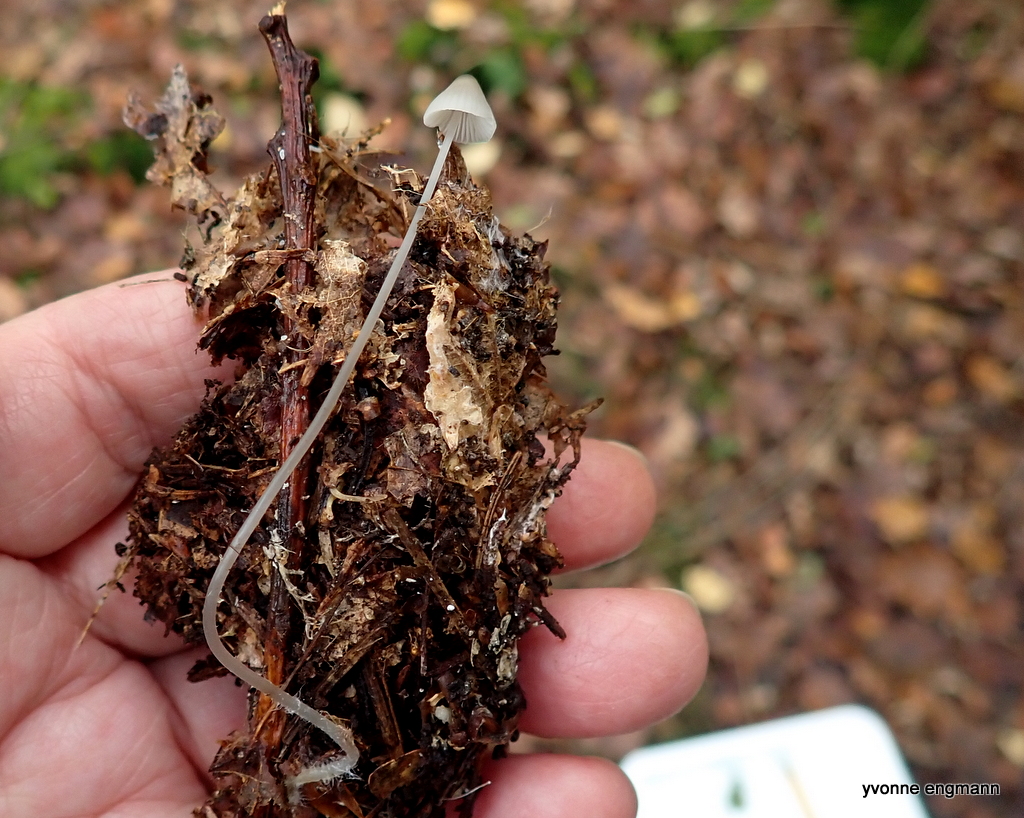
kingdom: Fungi
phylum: Basidiomycota
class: Agaricomycetes
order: Agaricales
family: Mycenaceae
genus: Mycena
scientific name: Mycena vitilis
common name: blankstokket huesvamp
